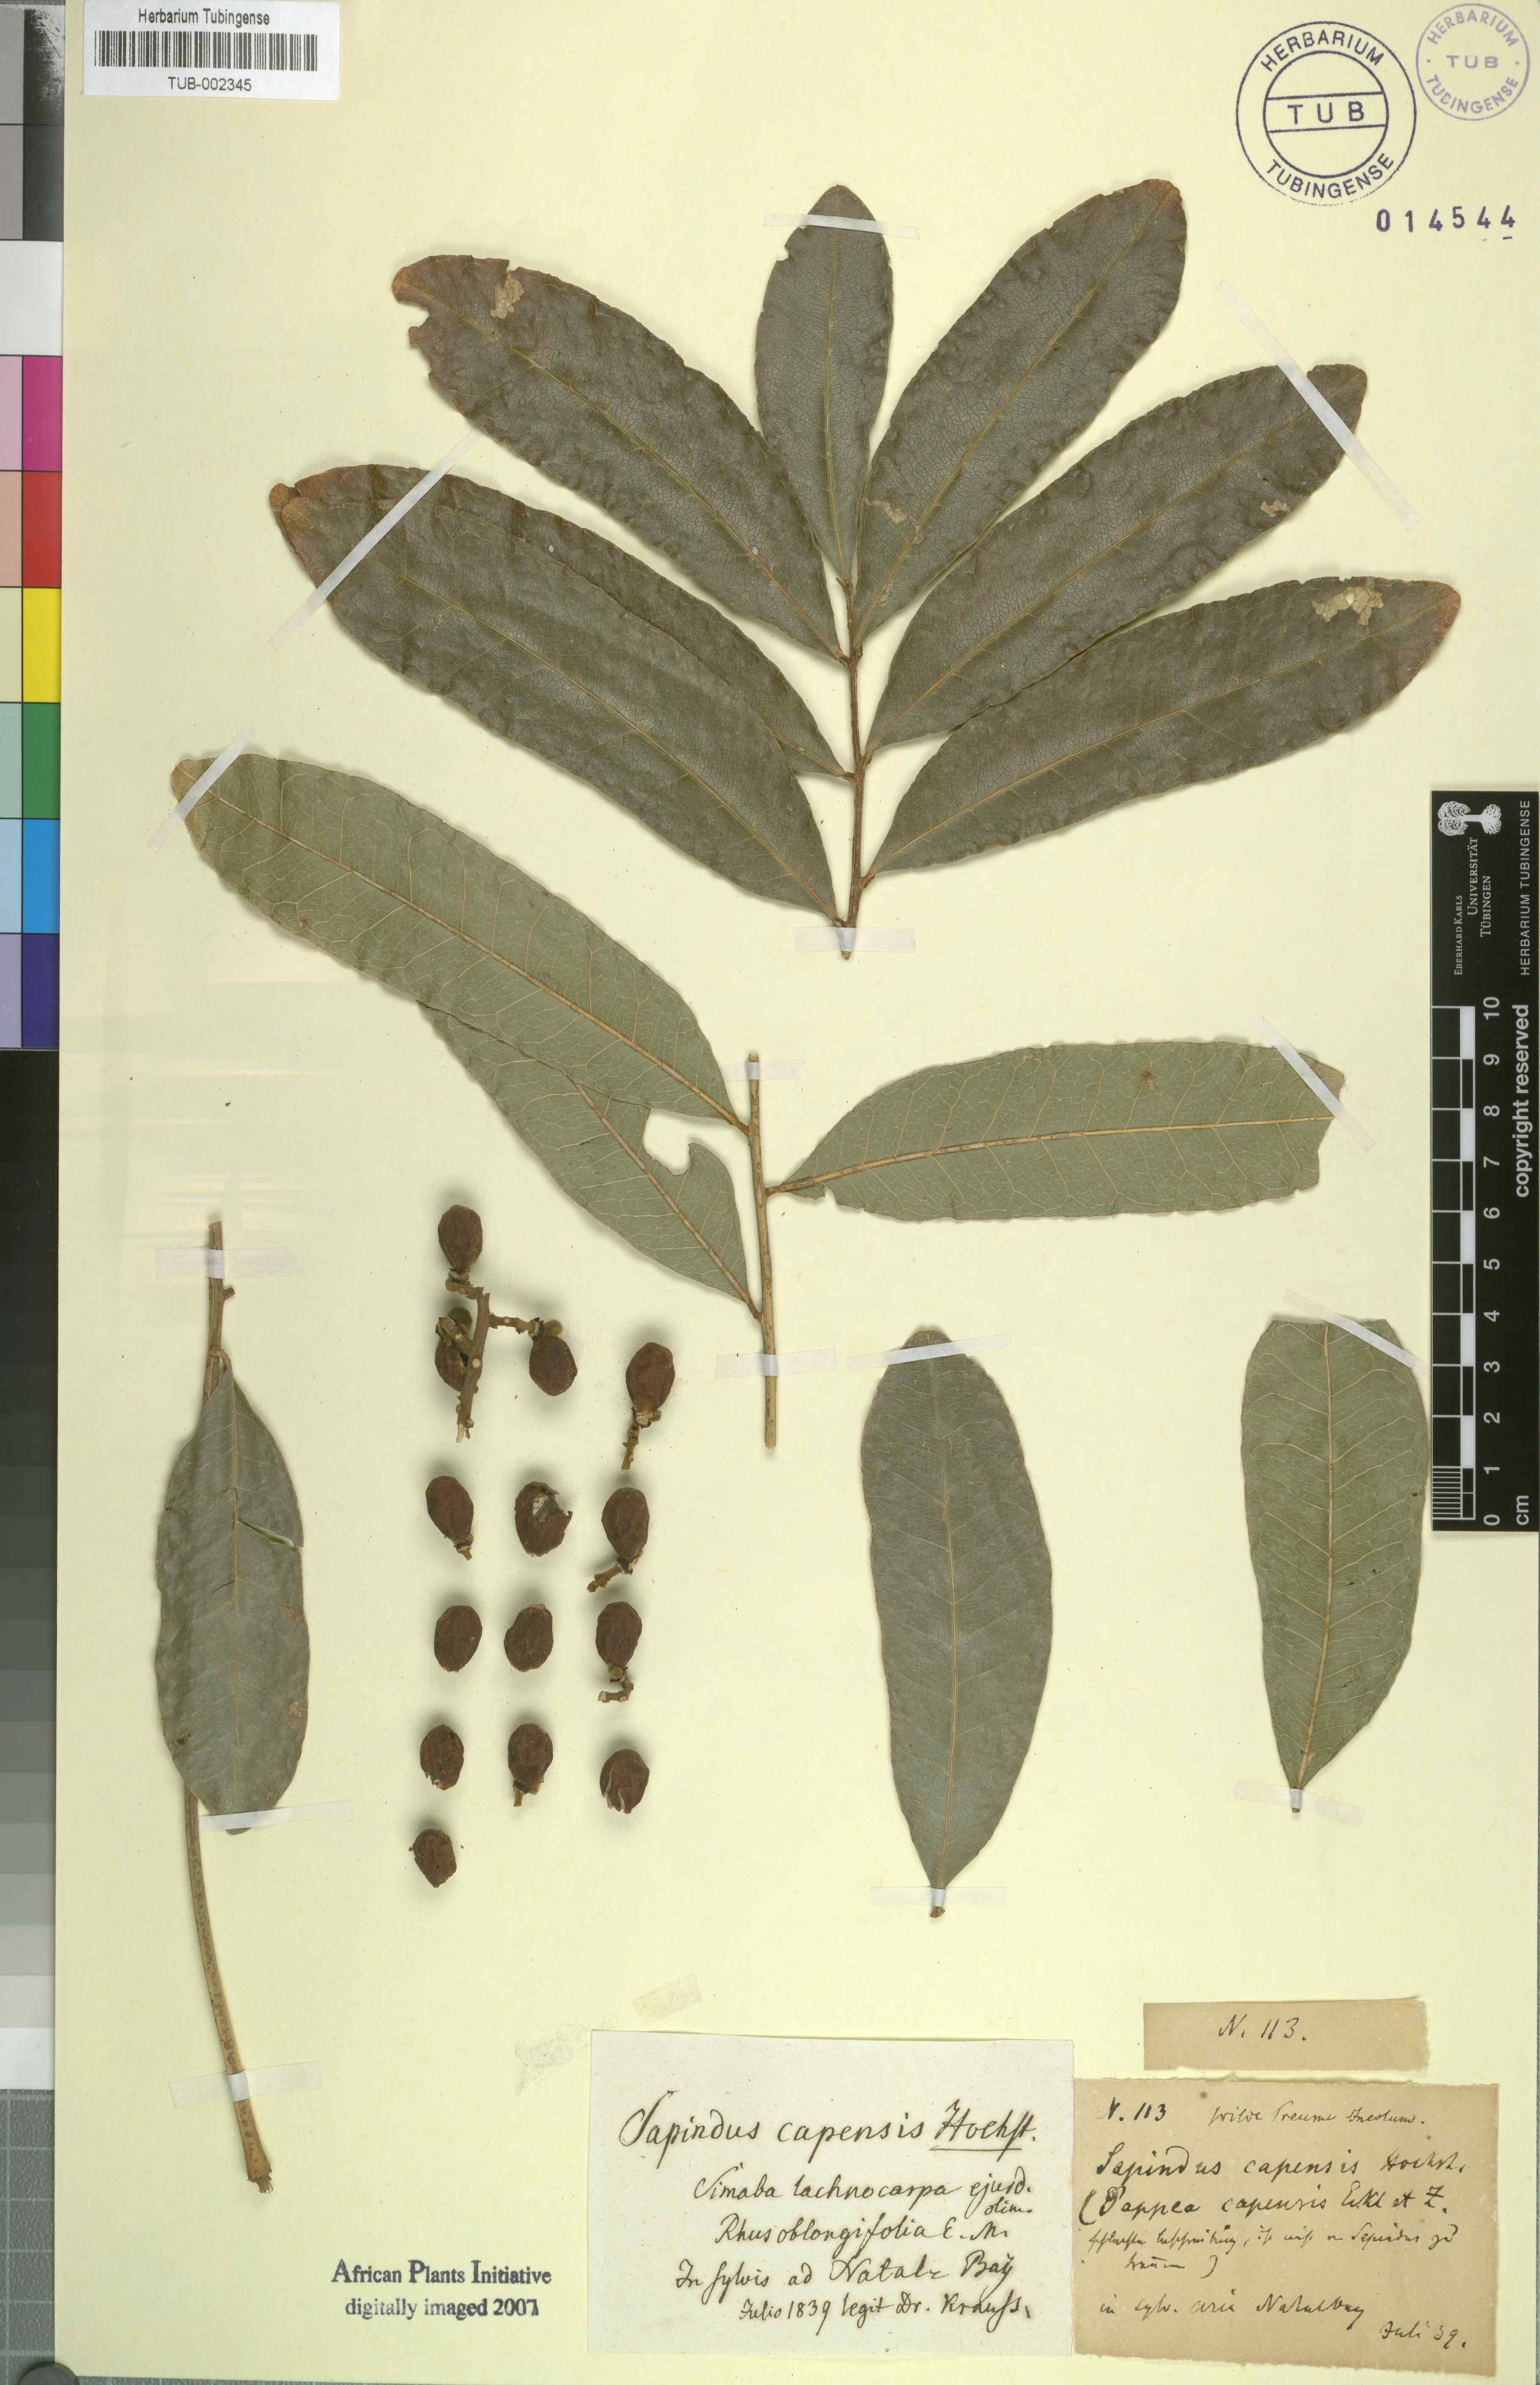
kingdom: Plantae
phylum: Tracheophyta
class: Magnoliopsida
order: Sapindales
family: Sapindaceae
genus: Deinbollia
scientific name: Deinbollia oblongifolia
